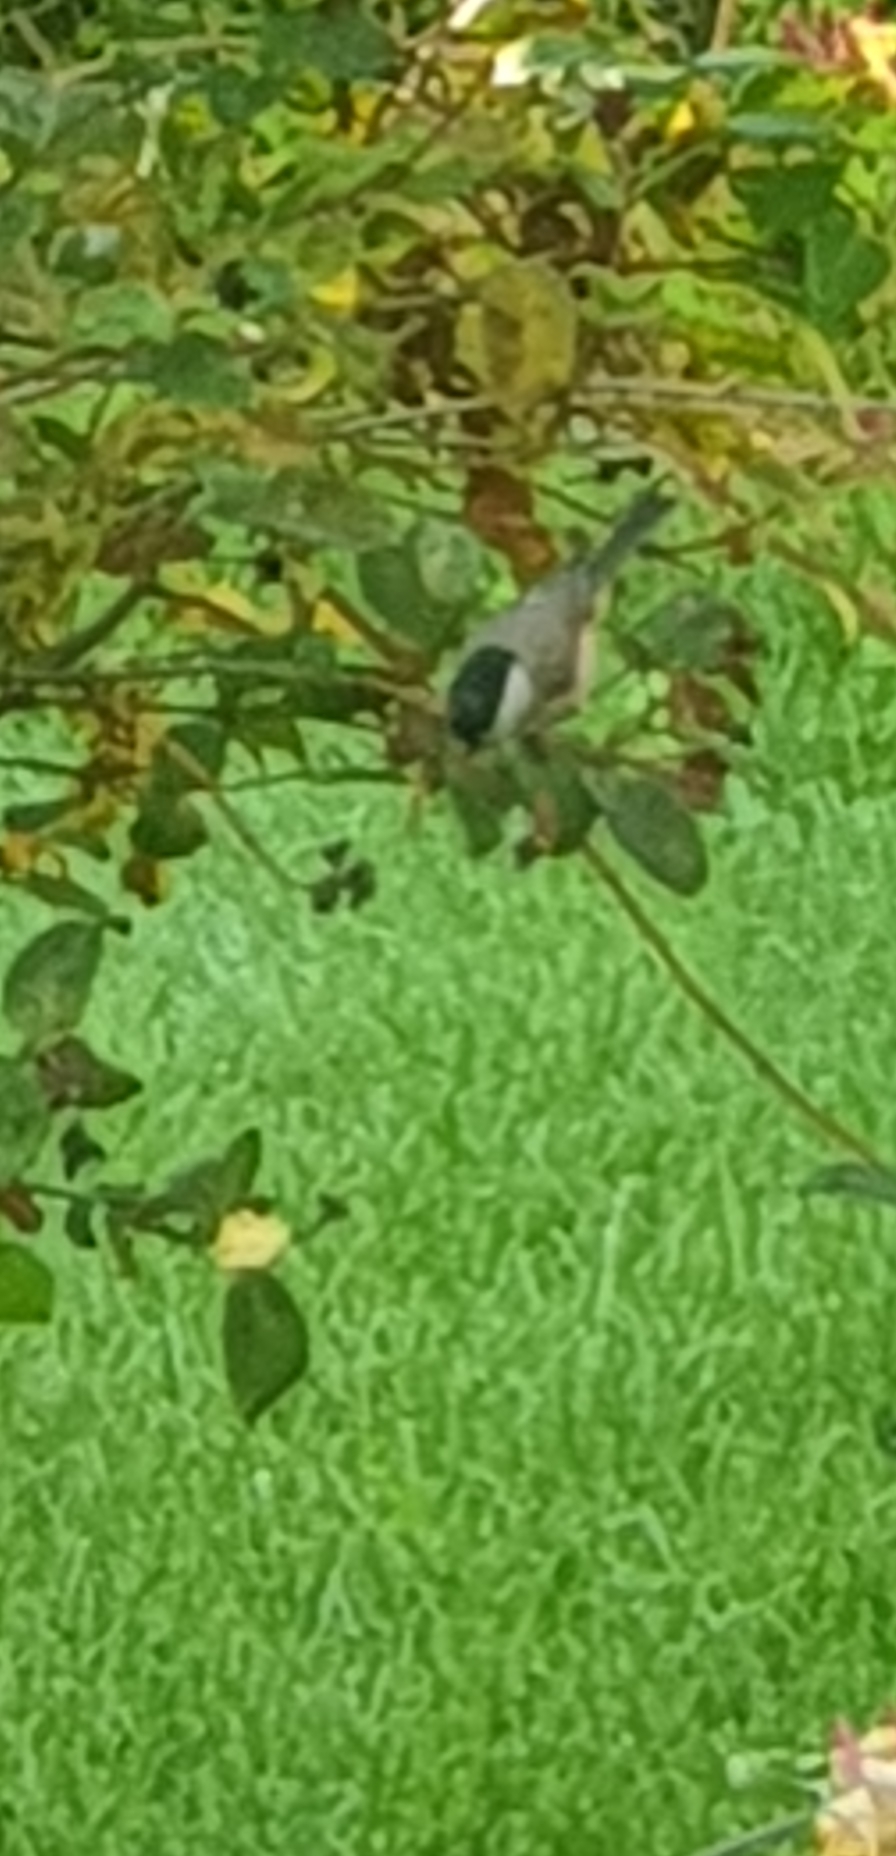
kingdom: Animalia
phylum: Chordata
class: Aves
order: Passeriformes
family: Paridae
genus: Poecile
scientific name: Poecile palustris
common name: Sumpmejse
